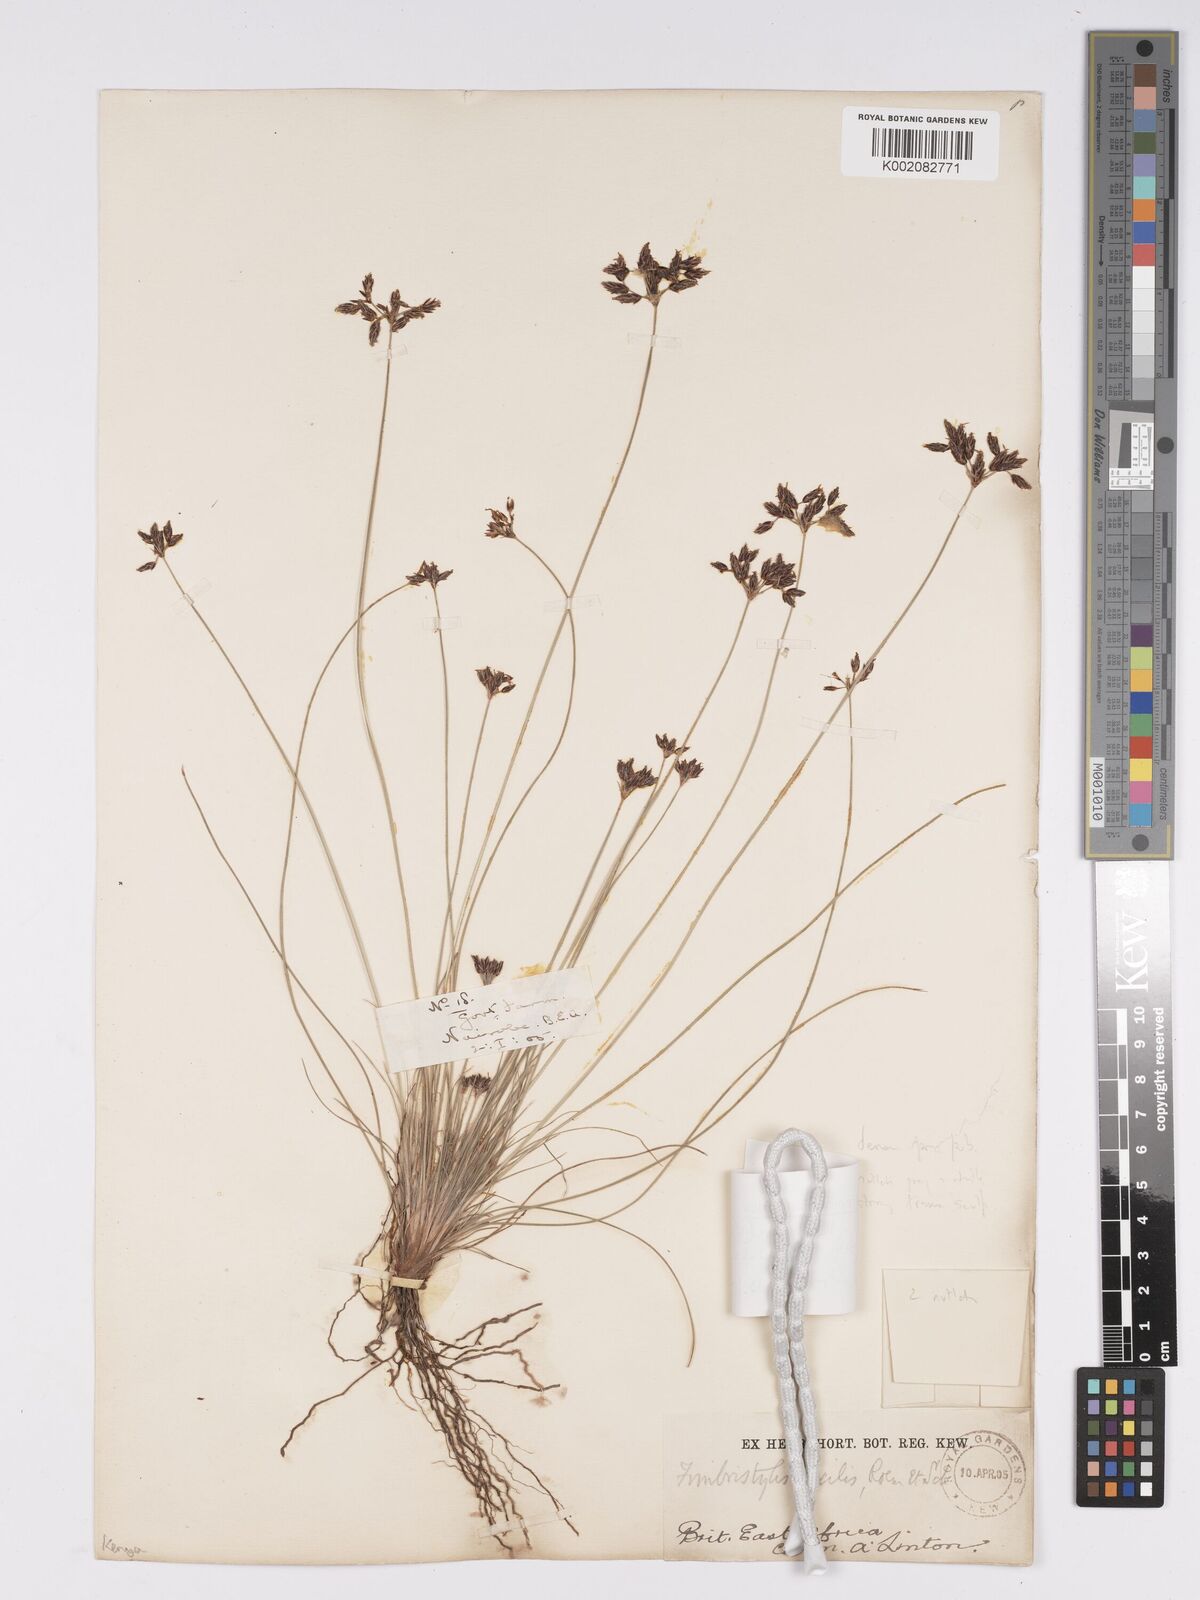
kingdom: Plantae
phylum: Tracheophyta
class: Liliopsida
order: Poales
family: Cyperaceae
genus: Bulbostylis
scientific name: Bulbostylis hispidula
